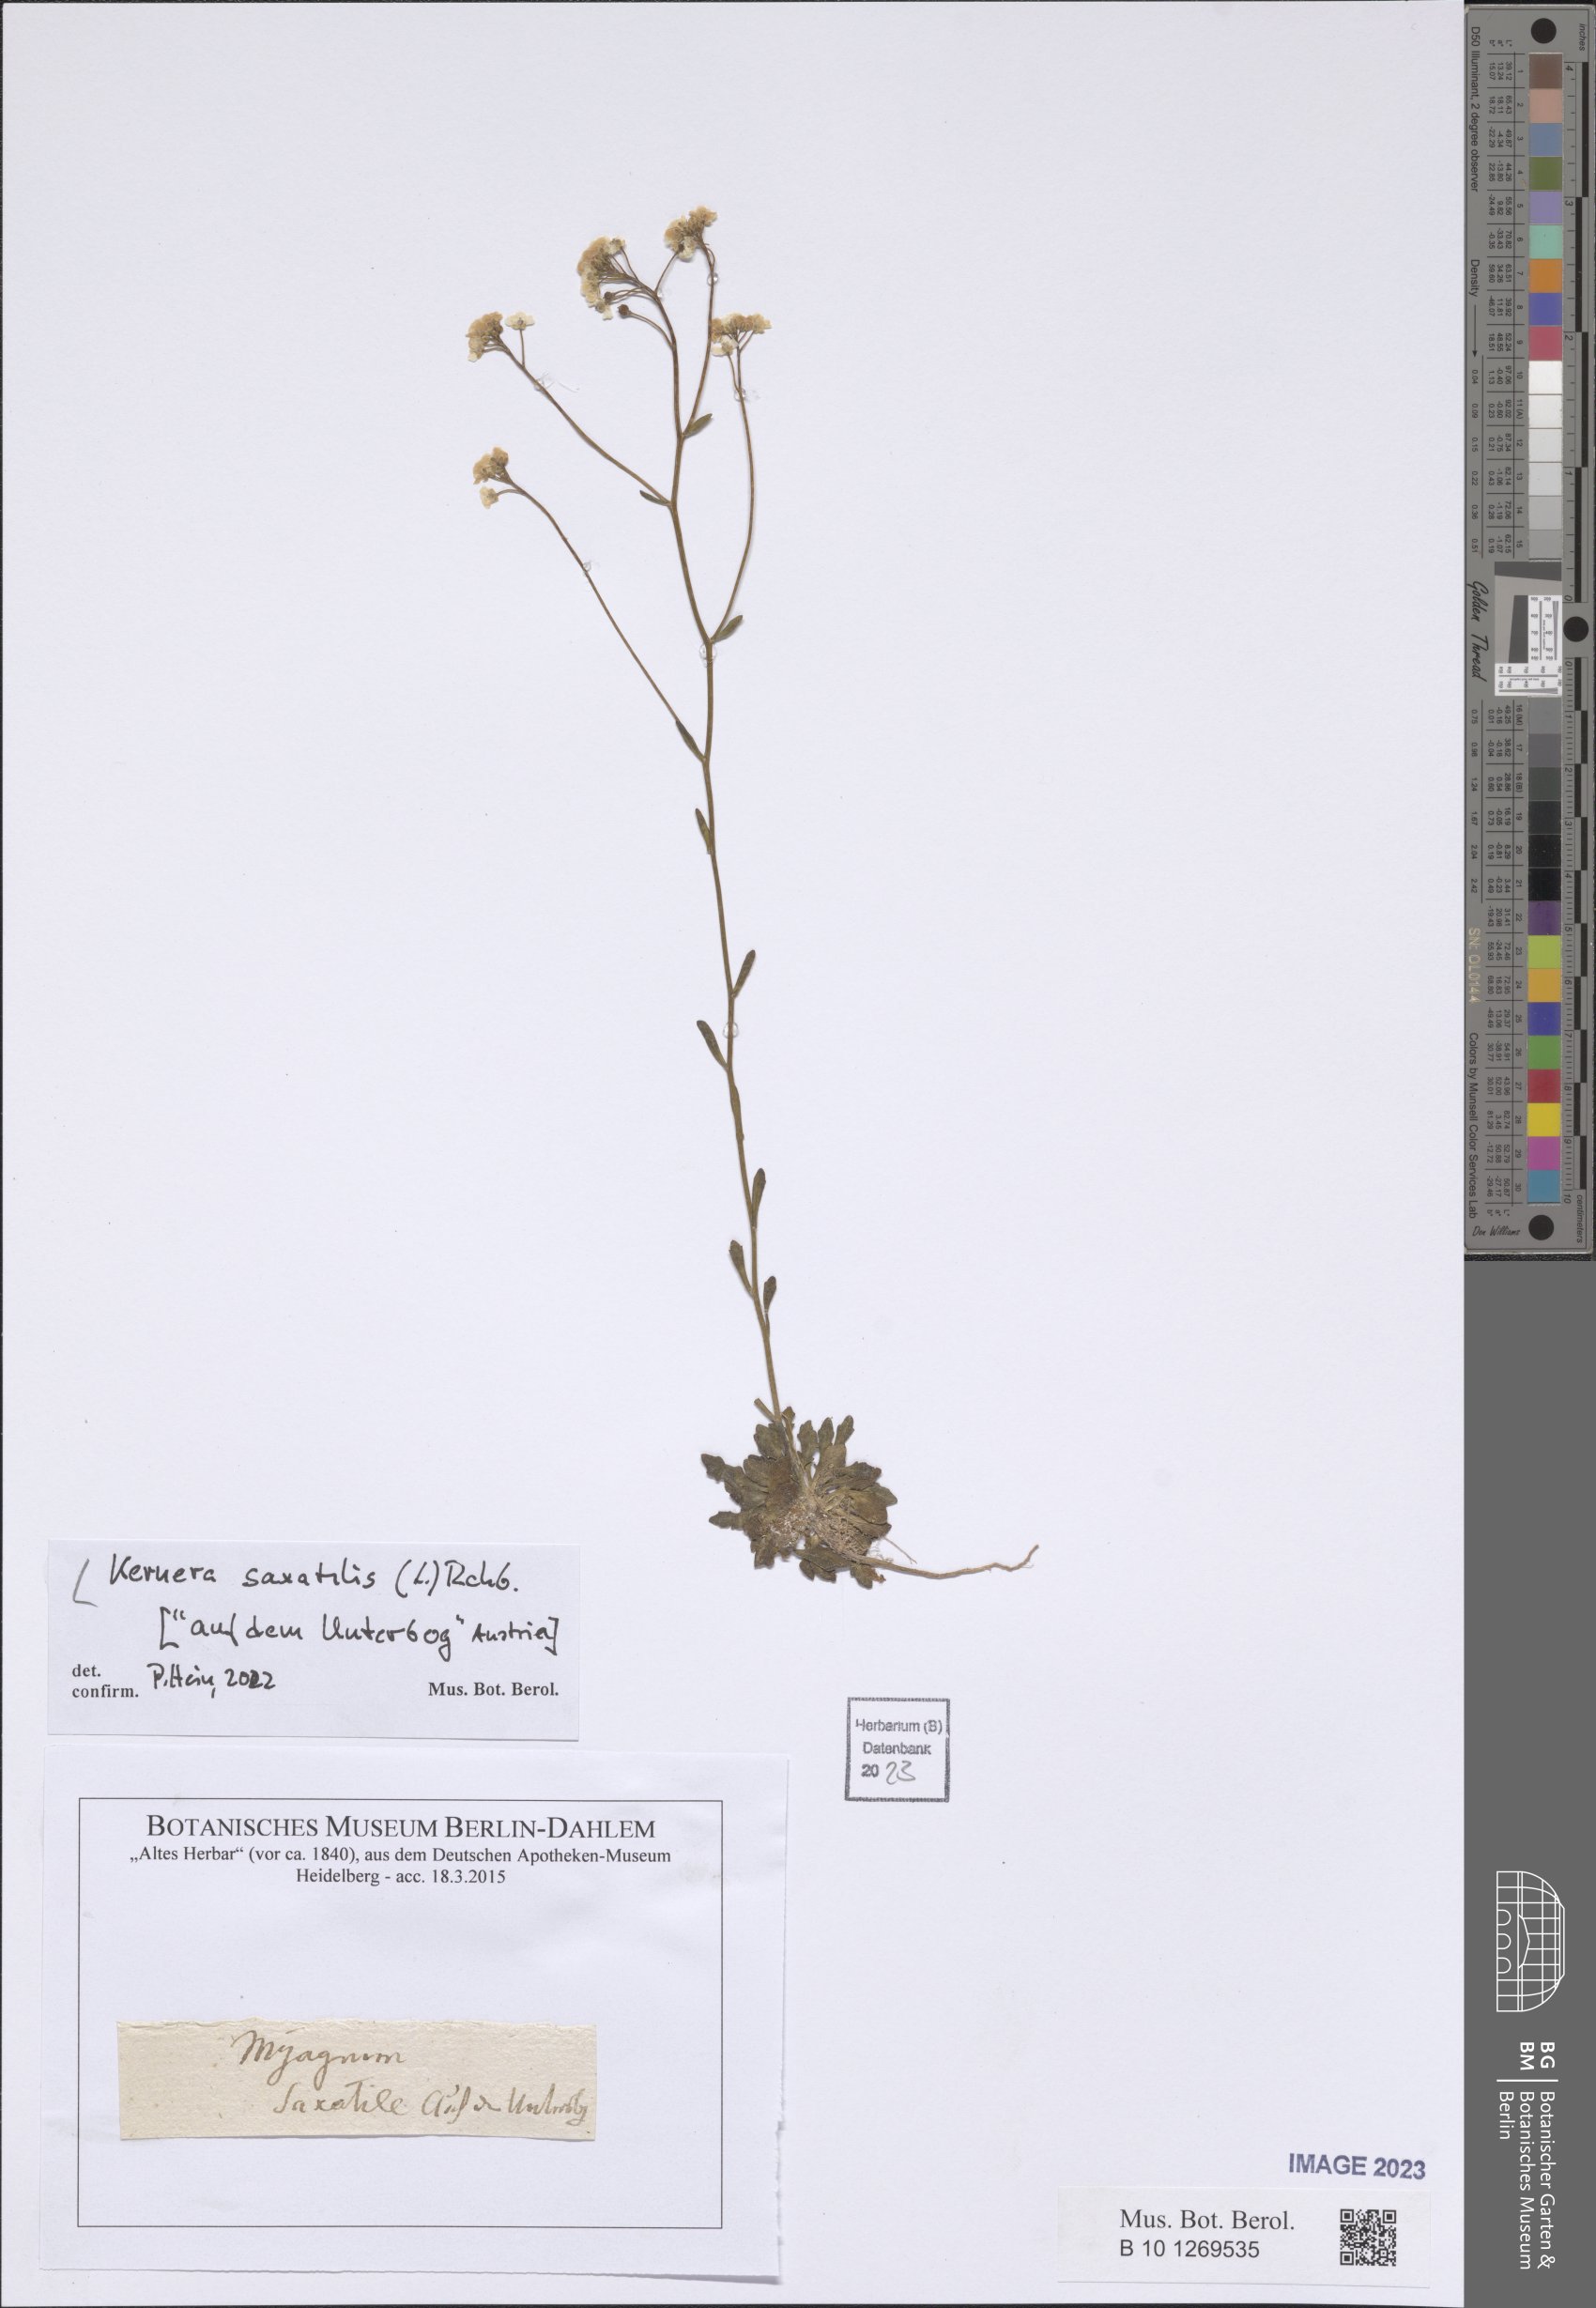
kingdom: Plantae
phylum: Tracheophyta
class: Magnoliopsida
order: Brassicales
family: Brassicaceae
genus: Kernera
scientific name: Kernera saxatilis
